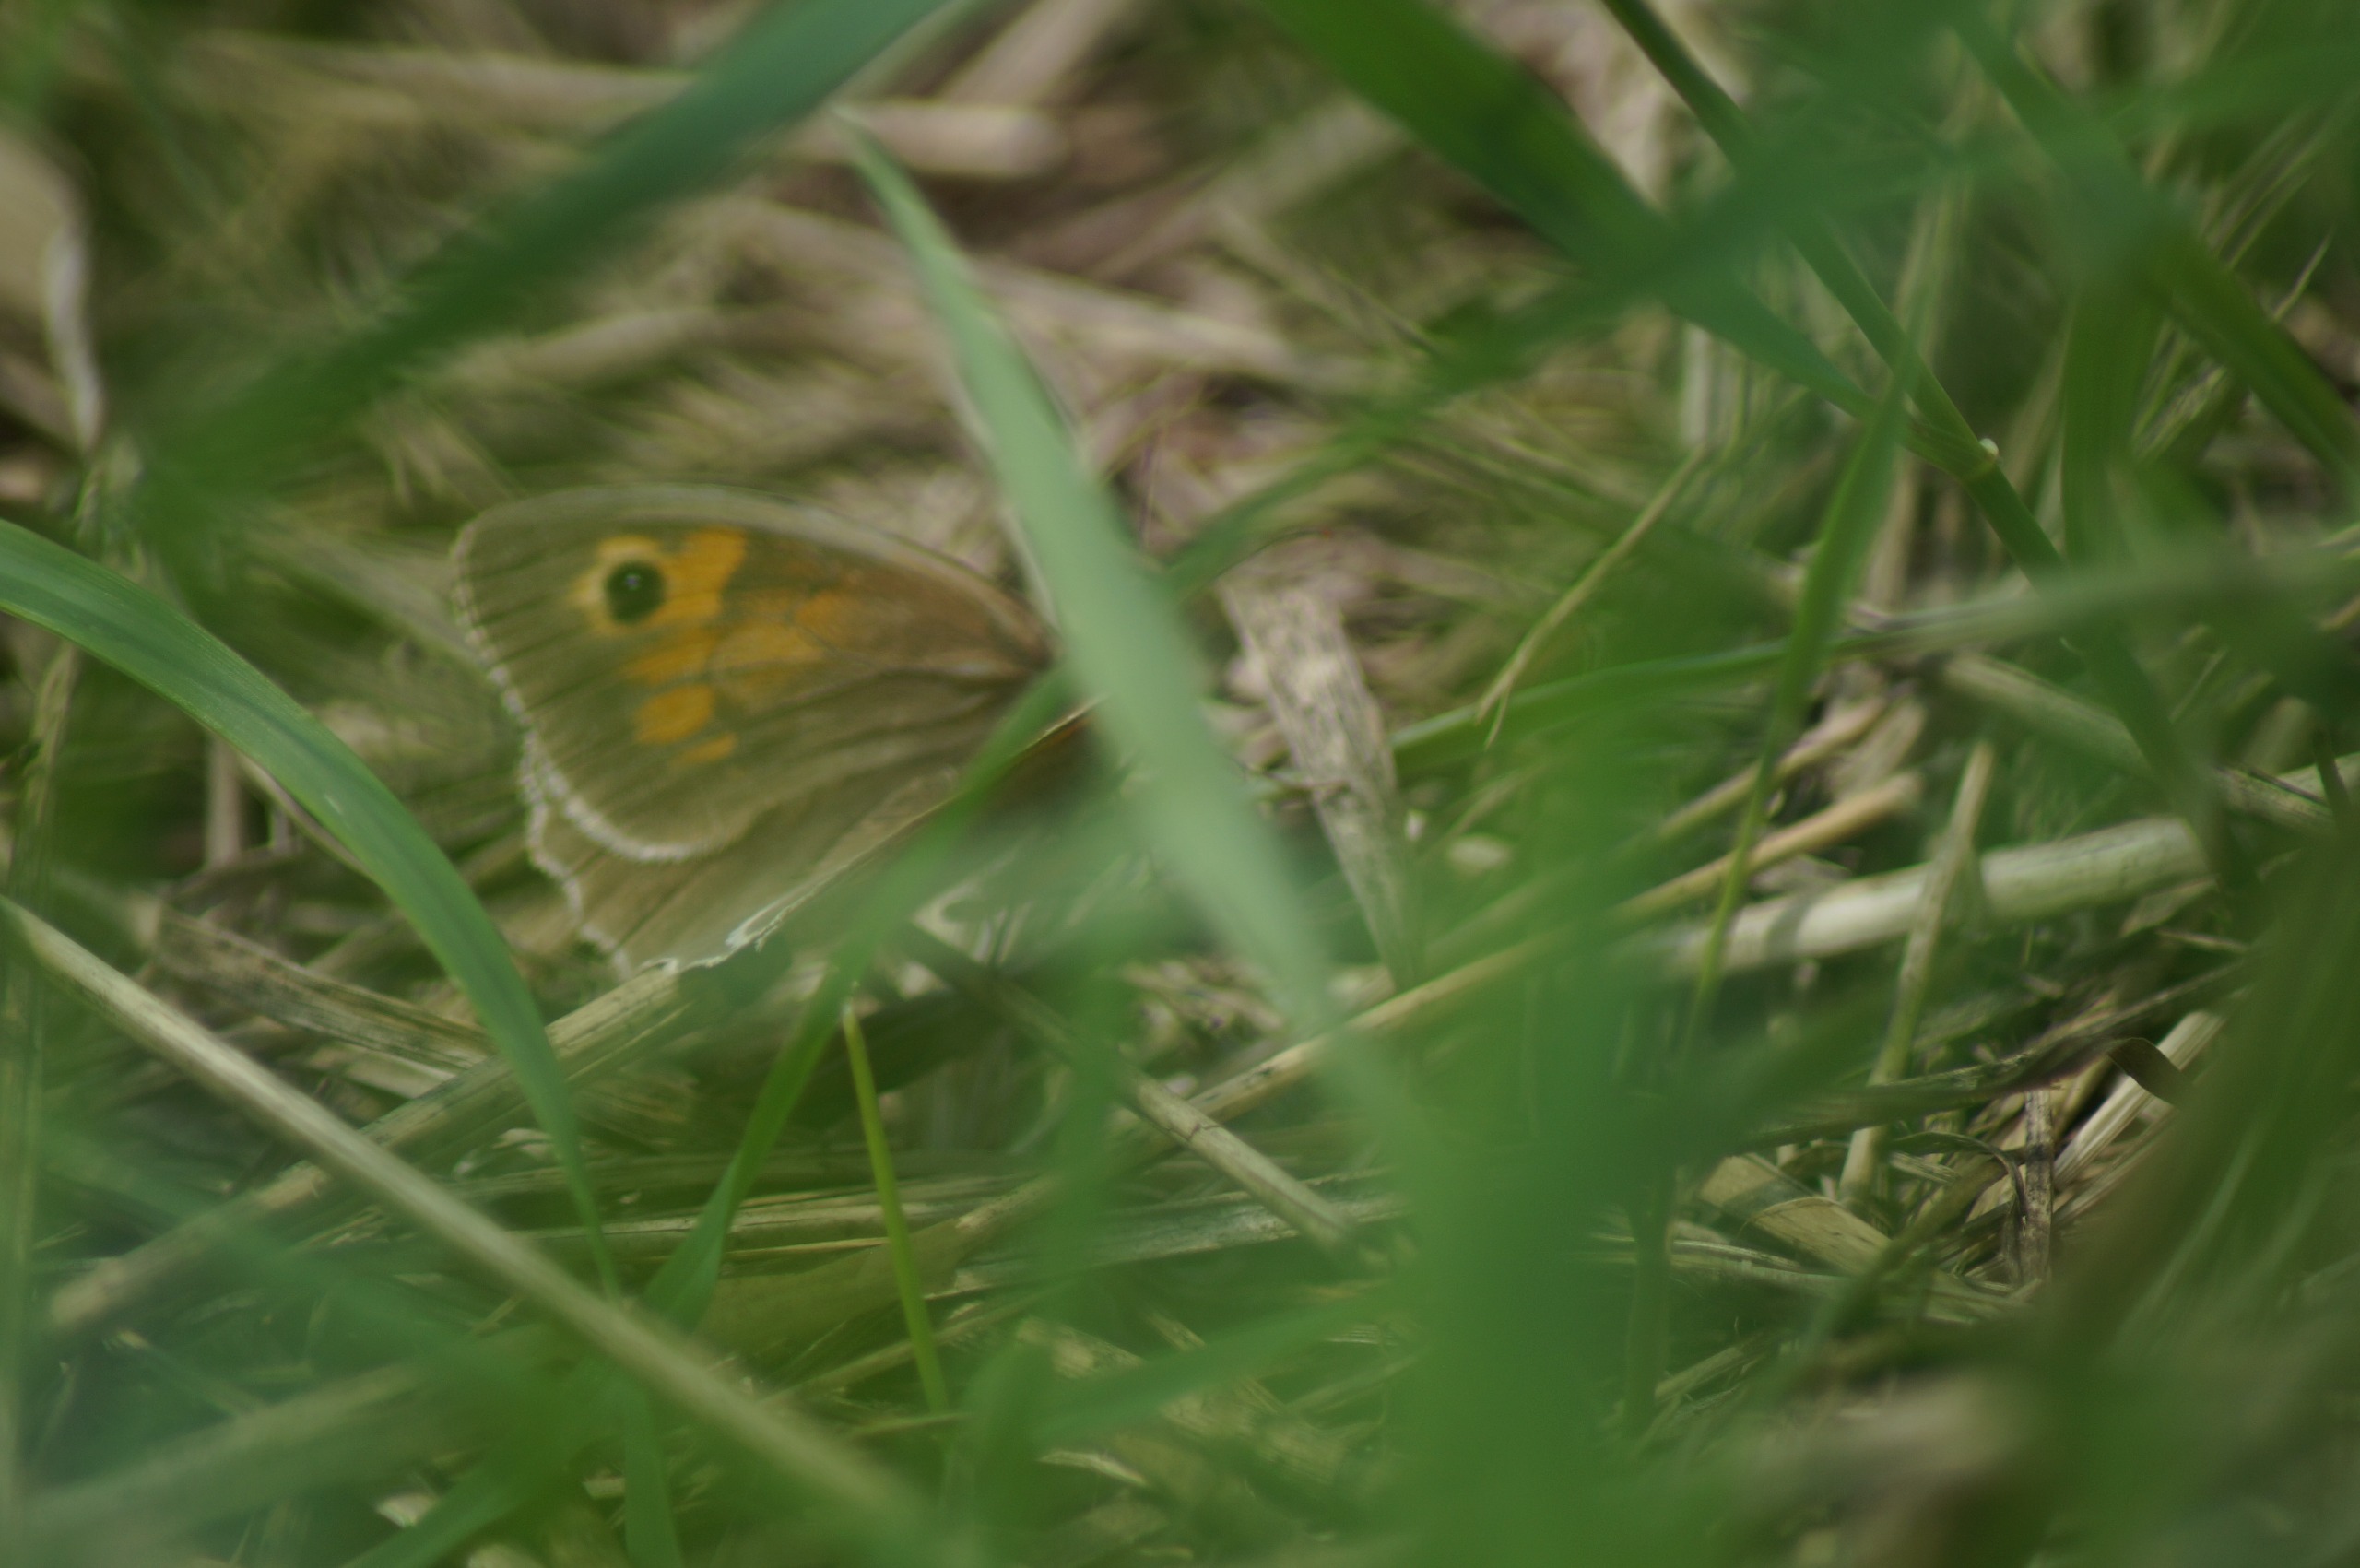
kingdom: Animalia
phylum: Arthropoda
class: Insecta
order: Lepidoptera
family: Nymphalidae
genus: Maniola
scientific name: Maniola jurtina
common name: Græsrandøje
